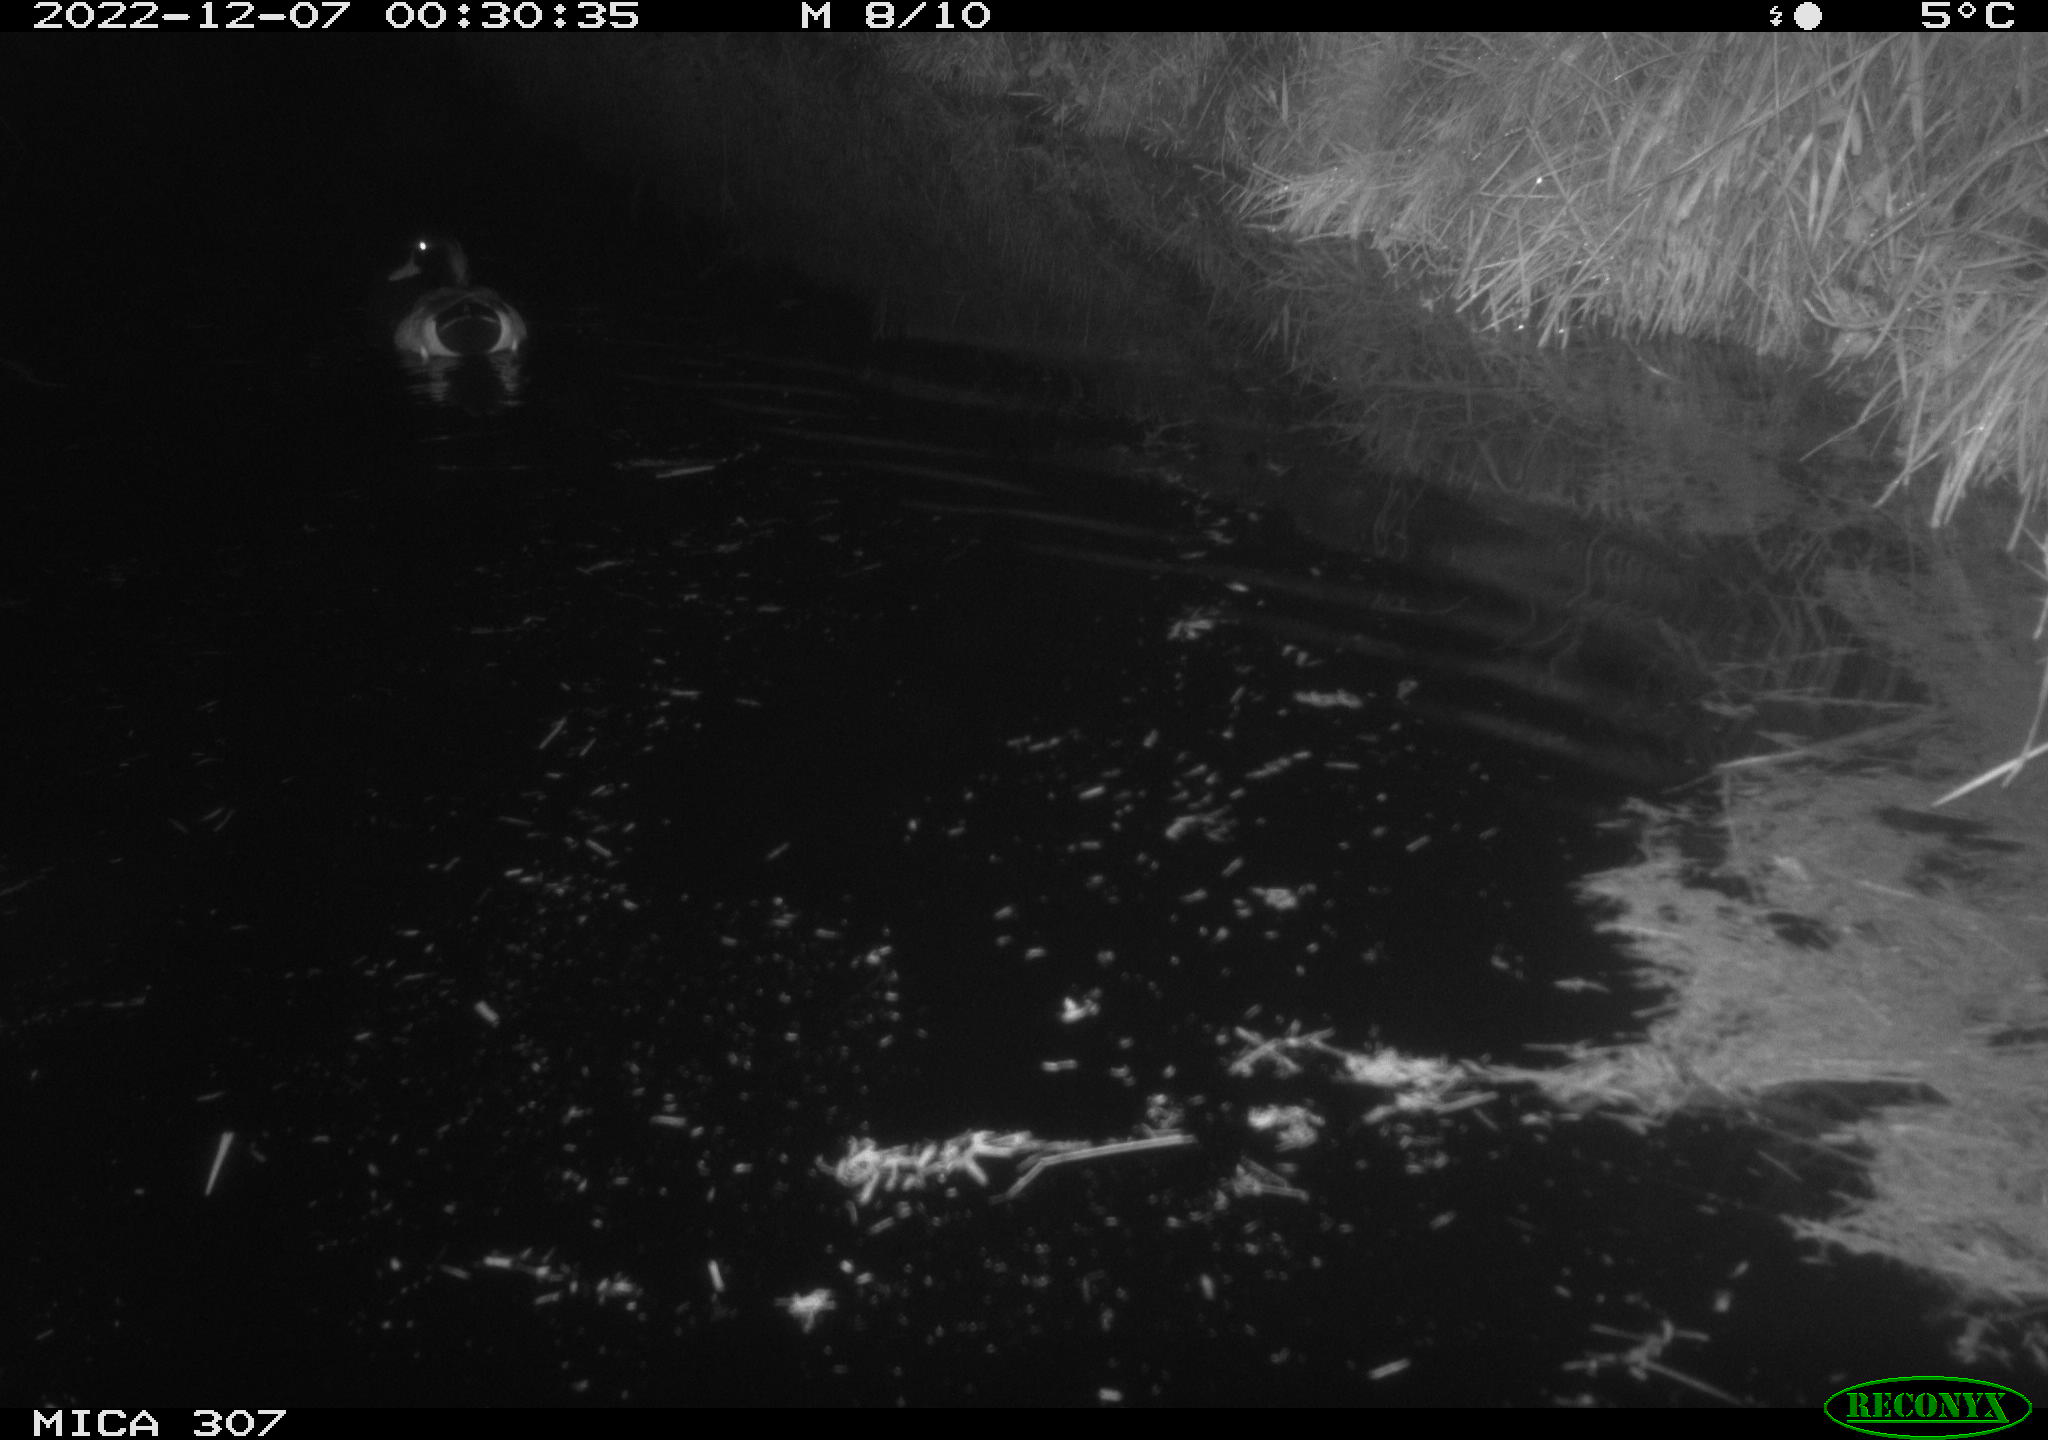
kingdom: Animalia
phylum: Chordata
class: Aves
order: Anseriformes
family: Anatidae
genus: Anas
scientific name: Anas
